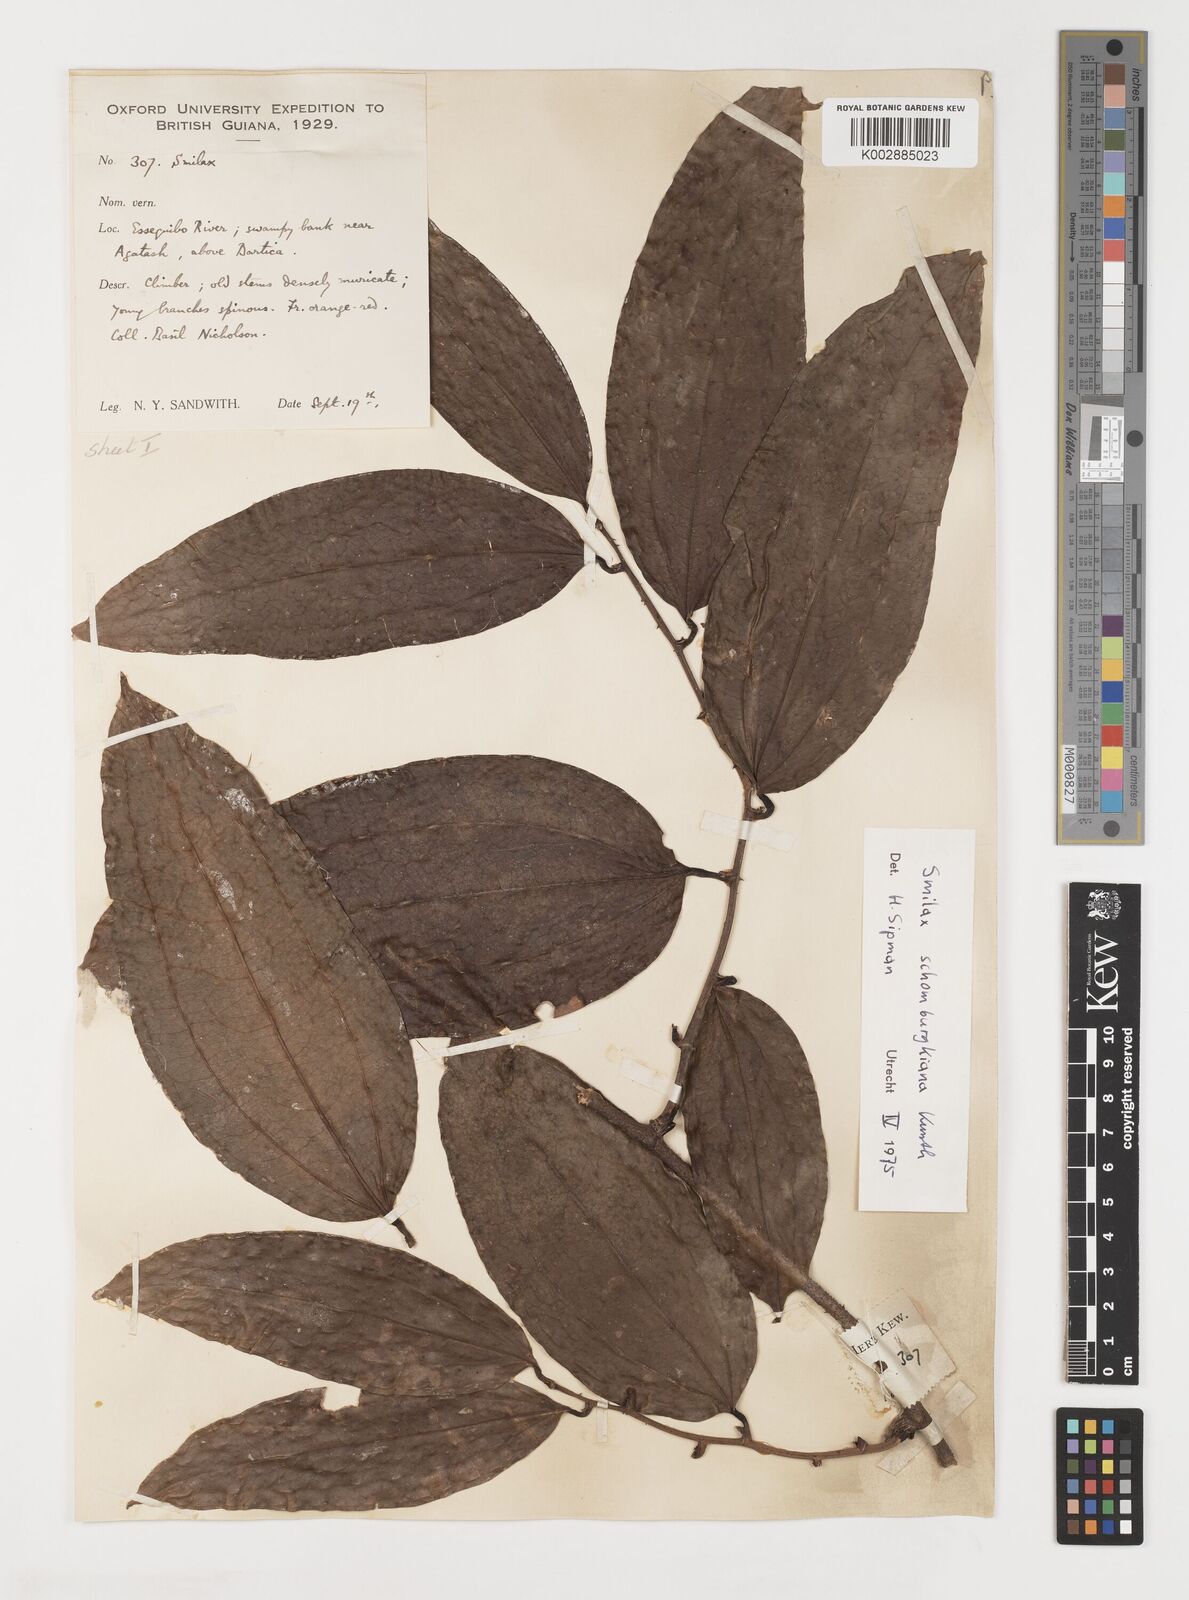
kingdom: Plantae
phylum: Tracheophyta
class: Liliopsida
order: Liliales
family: Smilacaceae
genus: Smilax
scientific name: Smilax schomburgkiana
